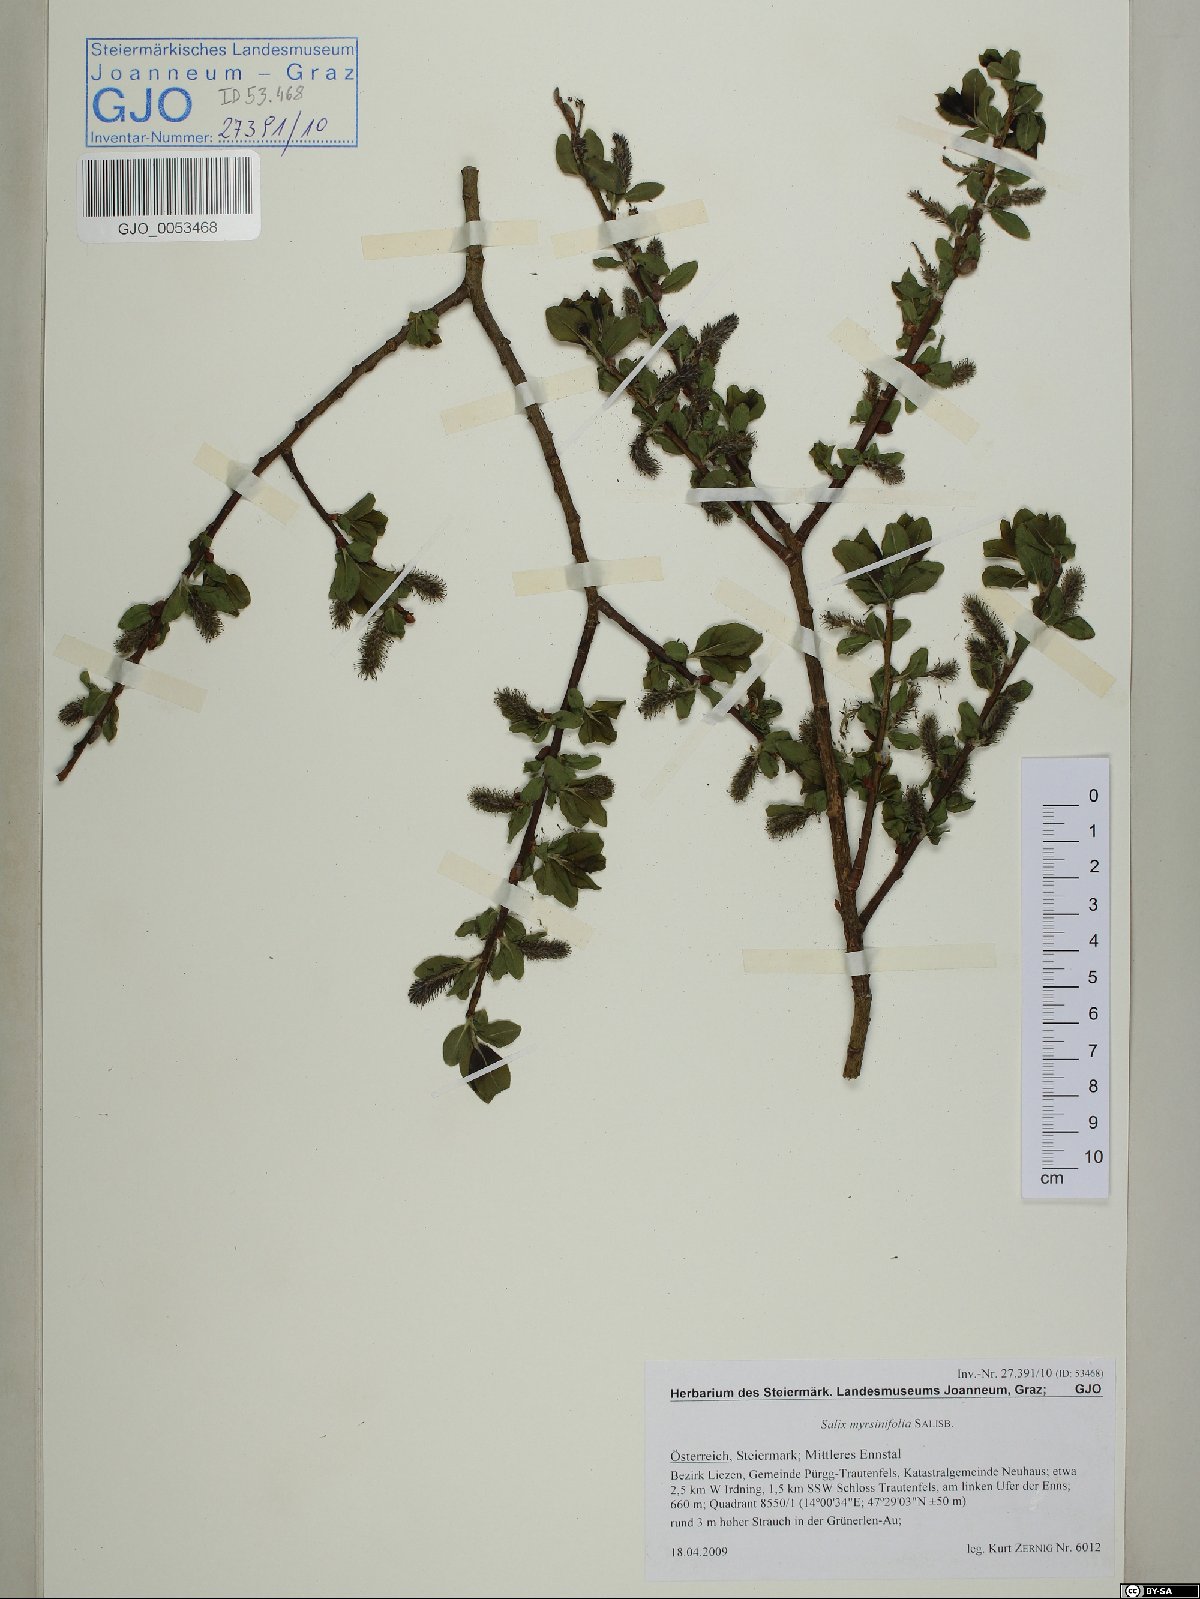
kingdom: Plantae
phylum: Tracheophyta
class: Magnoliopsida
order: Malpighiales
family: Salicaceae
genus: Salix
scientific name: Salix myrsinifolia
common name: Dark-leaved willow
